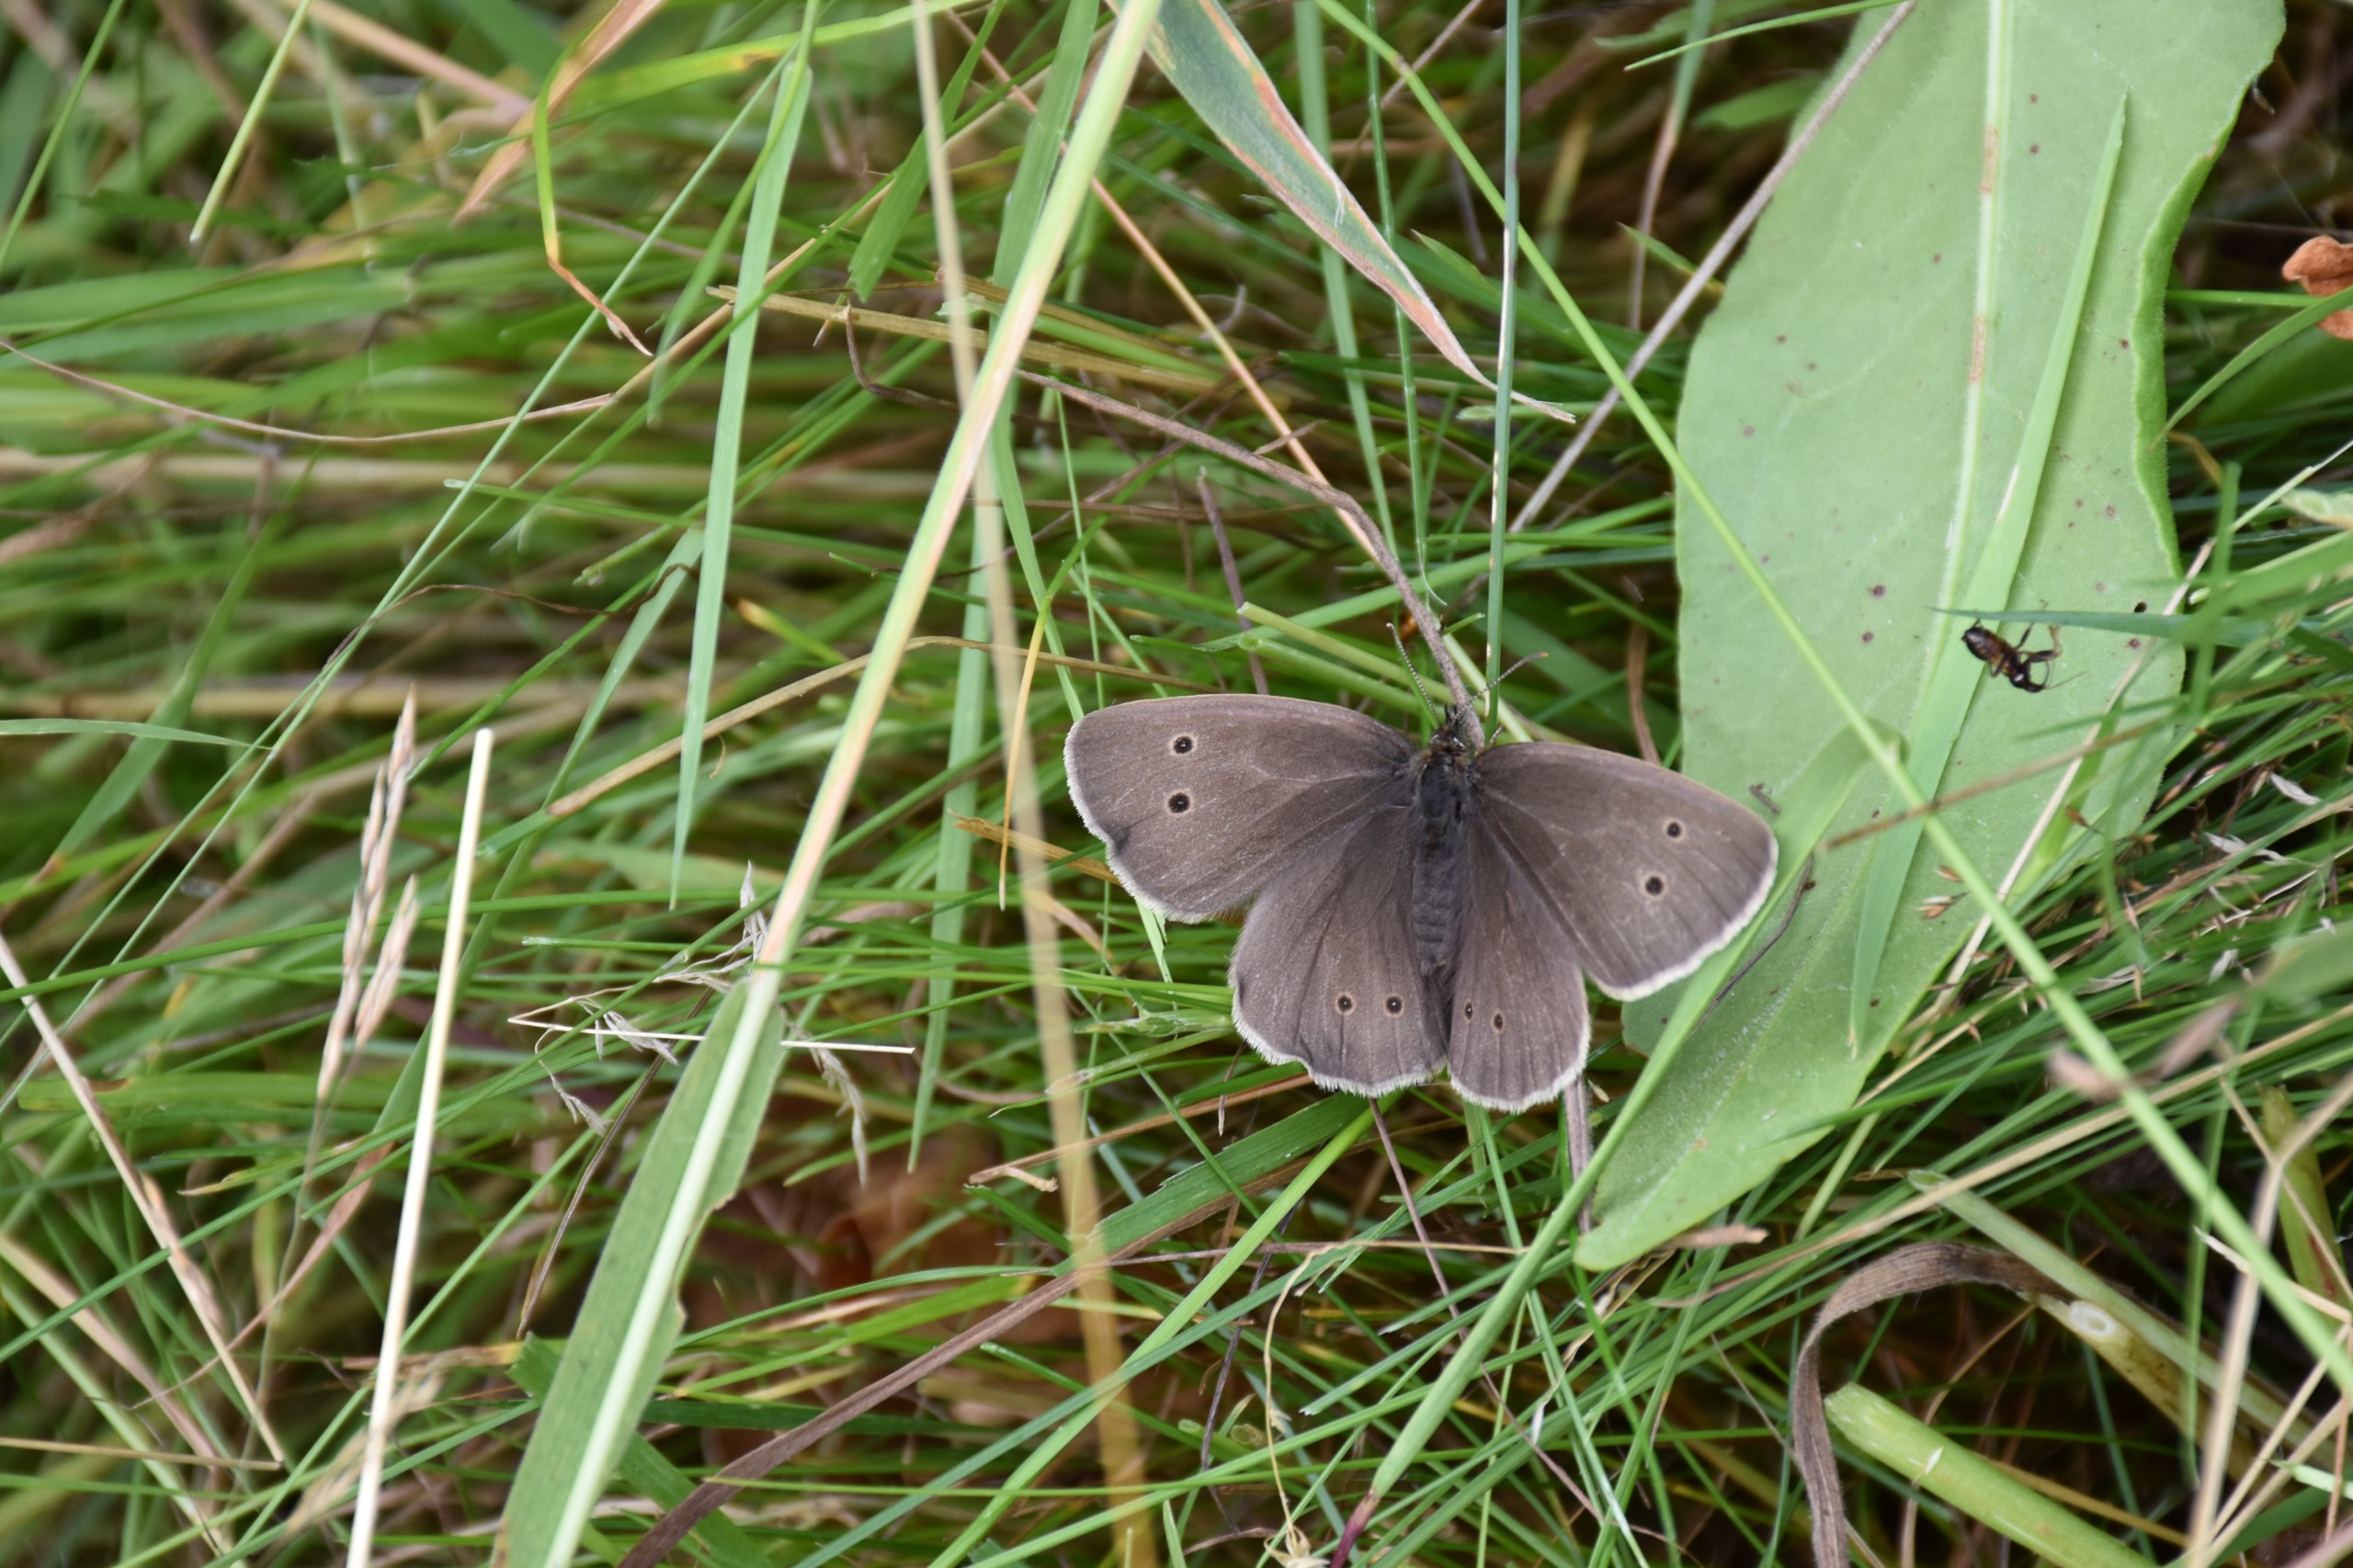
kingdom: Animalia
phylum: Arthropoda
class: Insecta
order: Lepidoptera
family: Nymphalidae
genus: Aphantopus
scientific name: Aphantopus hyperantus
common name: Engrandøje
